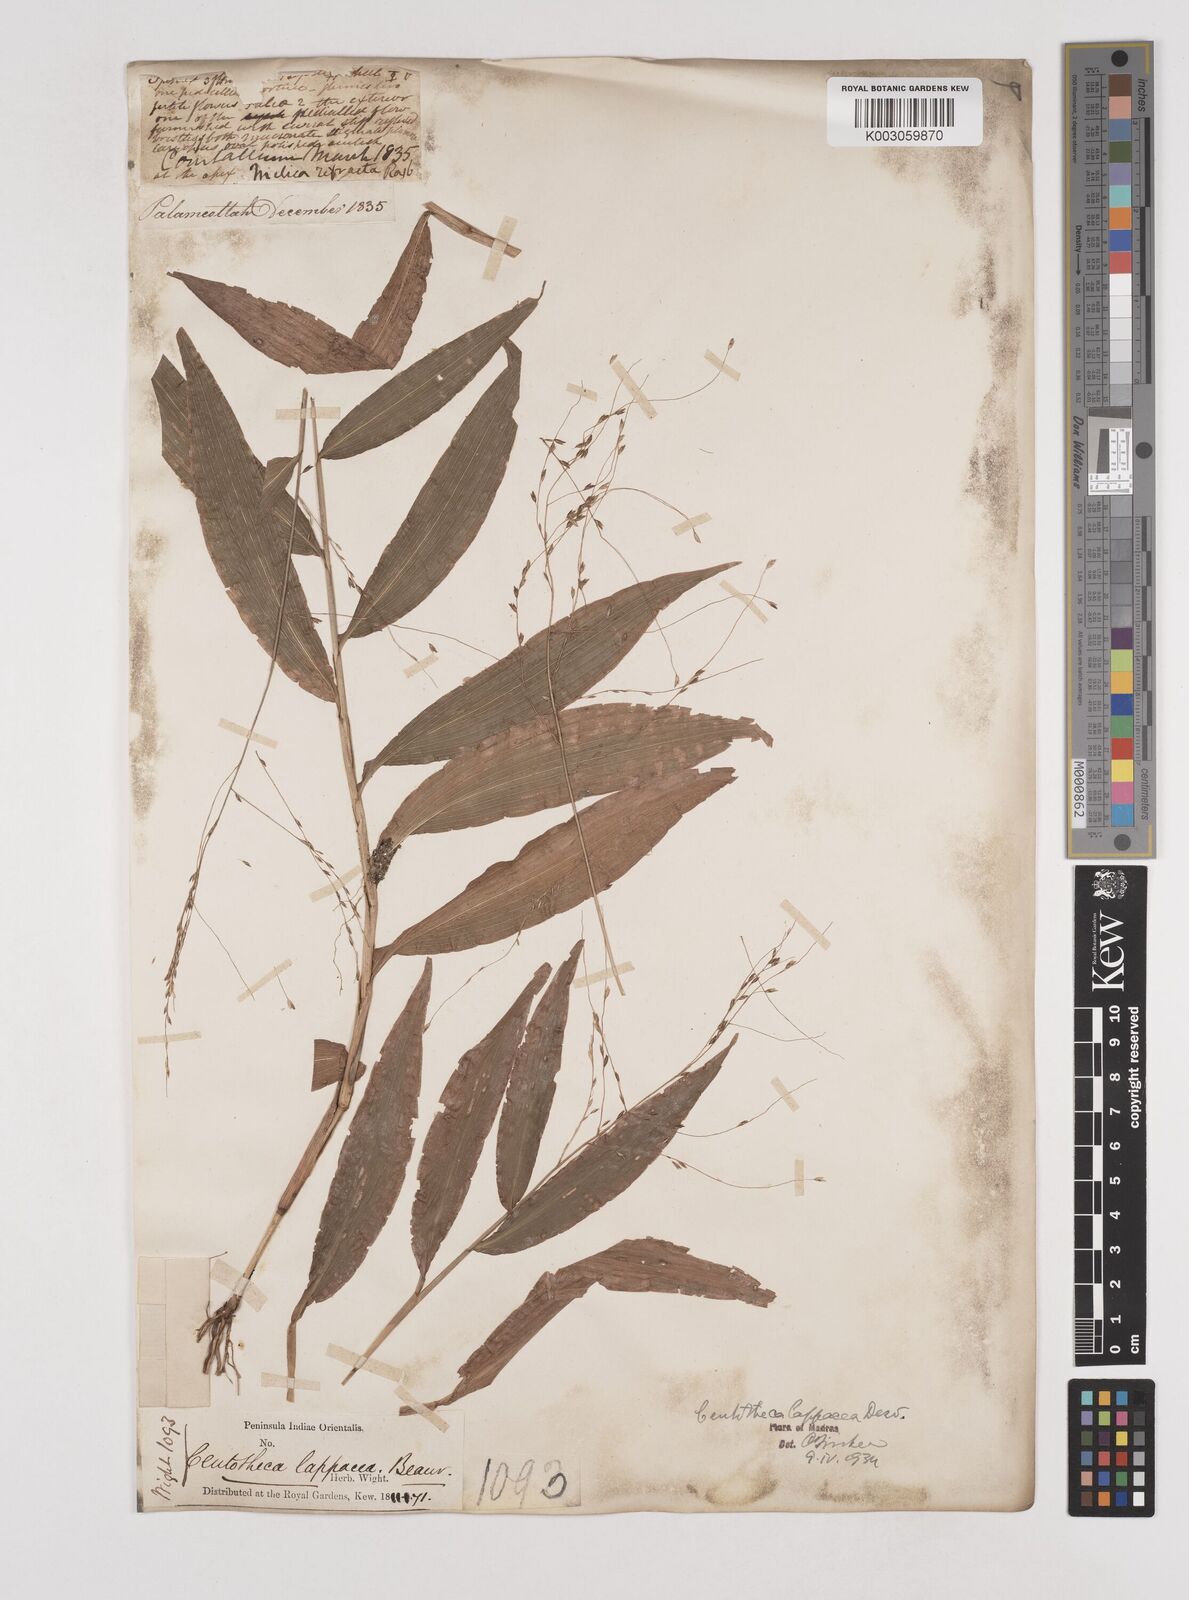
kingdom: Plantae
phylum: Tracheophyta
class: Liliopsida
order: Poales
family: Poaceae
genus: Centotheca
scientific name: Centotheca lappacea
